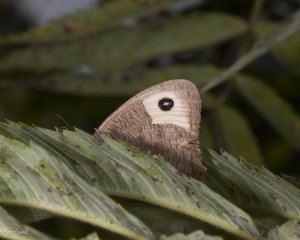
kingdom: Animalia
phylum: Arthropoda
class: Insecta
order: Lepidoptera
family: Nymphalidae
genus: Cercyonis
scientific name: Cercyonis pegala
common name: Common Wood-Nymph
